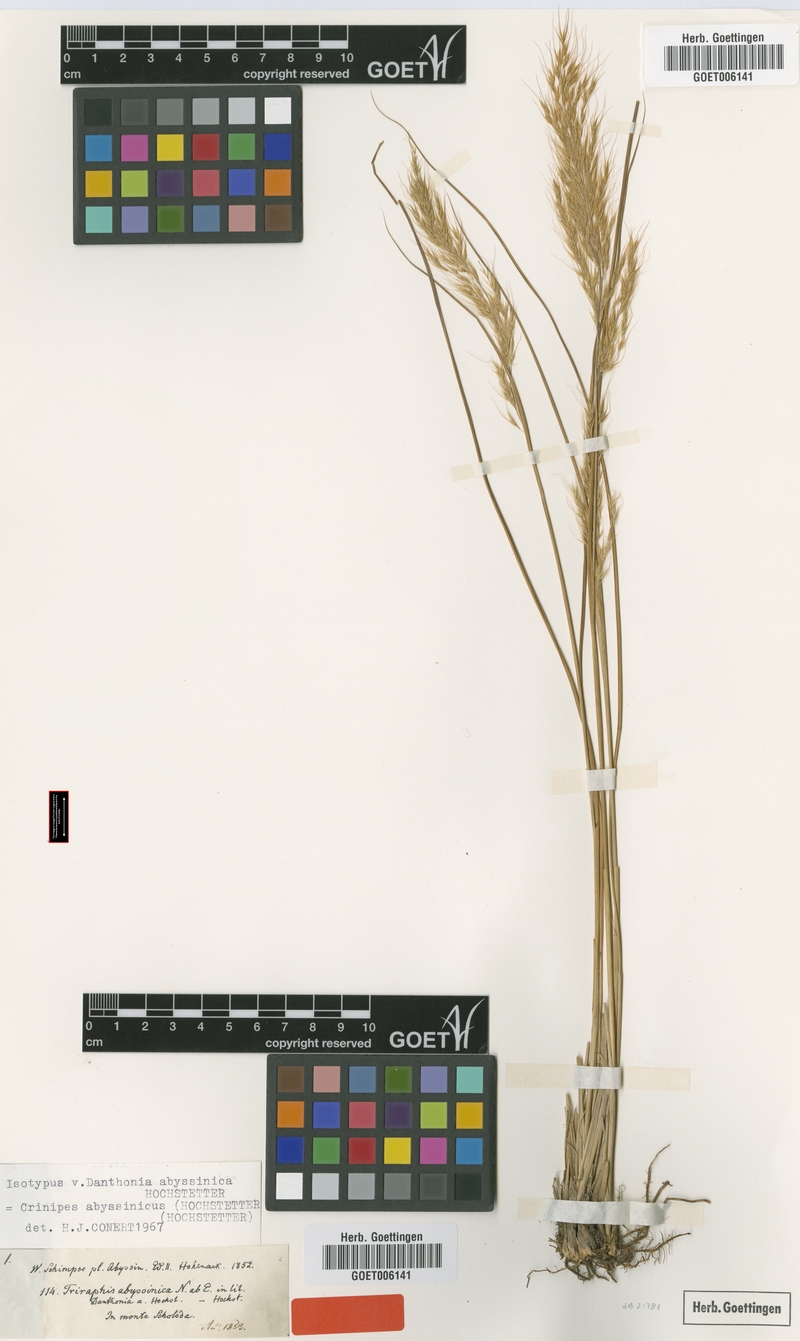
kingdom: Plantae
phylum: Tracheophyta
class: Liliopsida
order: Poales
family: Poaceae
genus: Crinipes
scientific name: Crinipes abyssinicus
